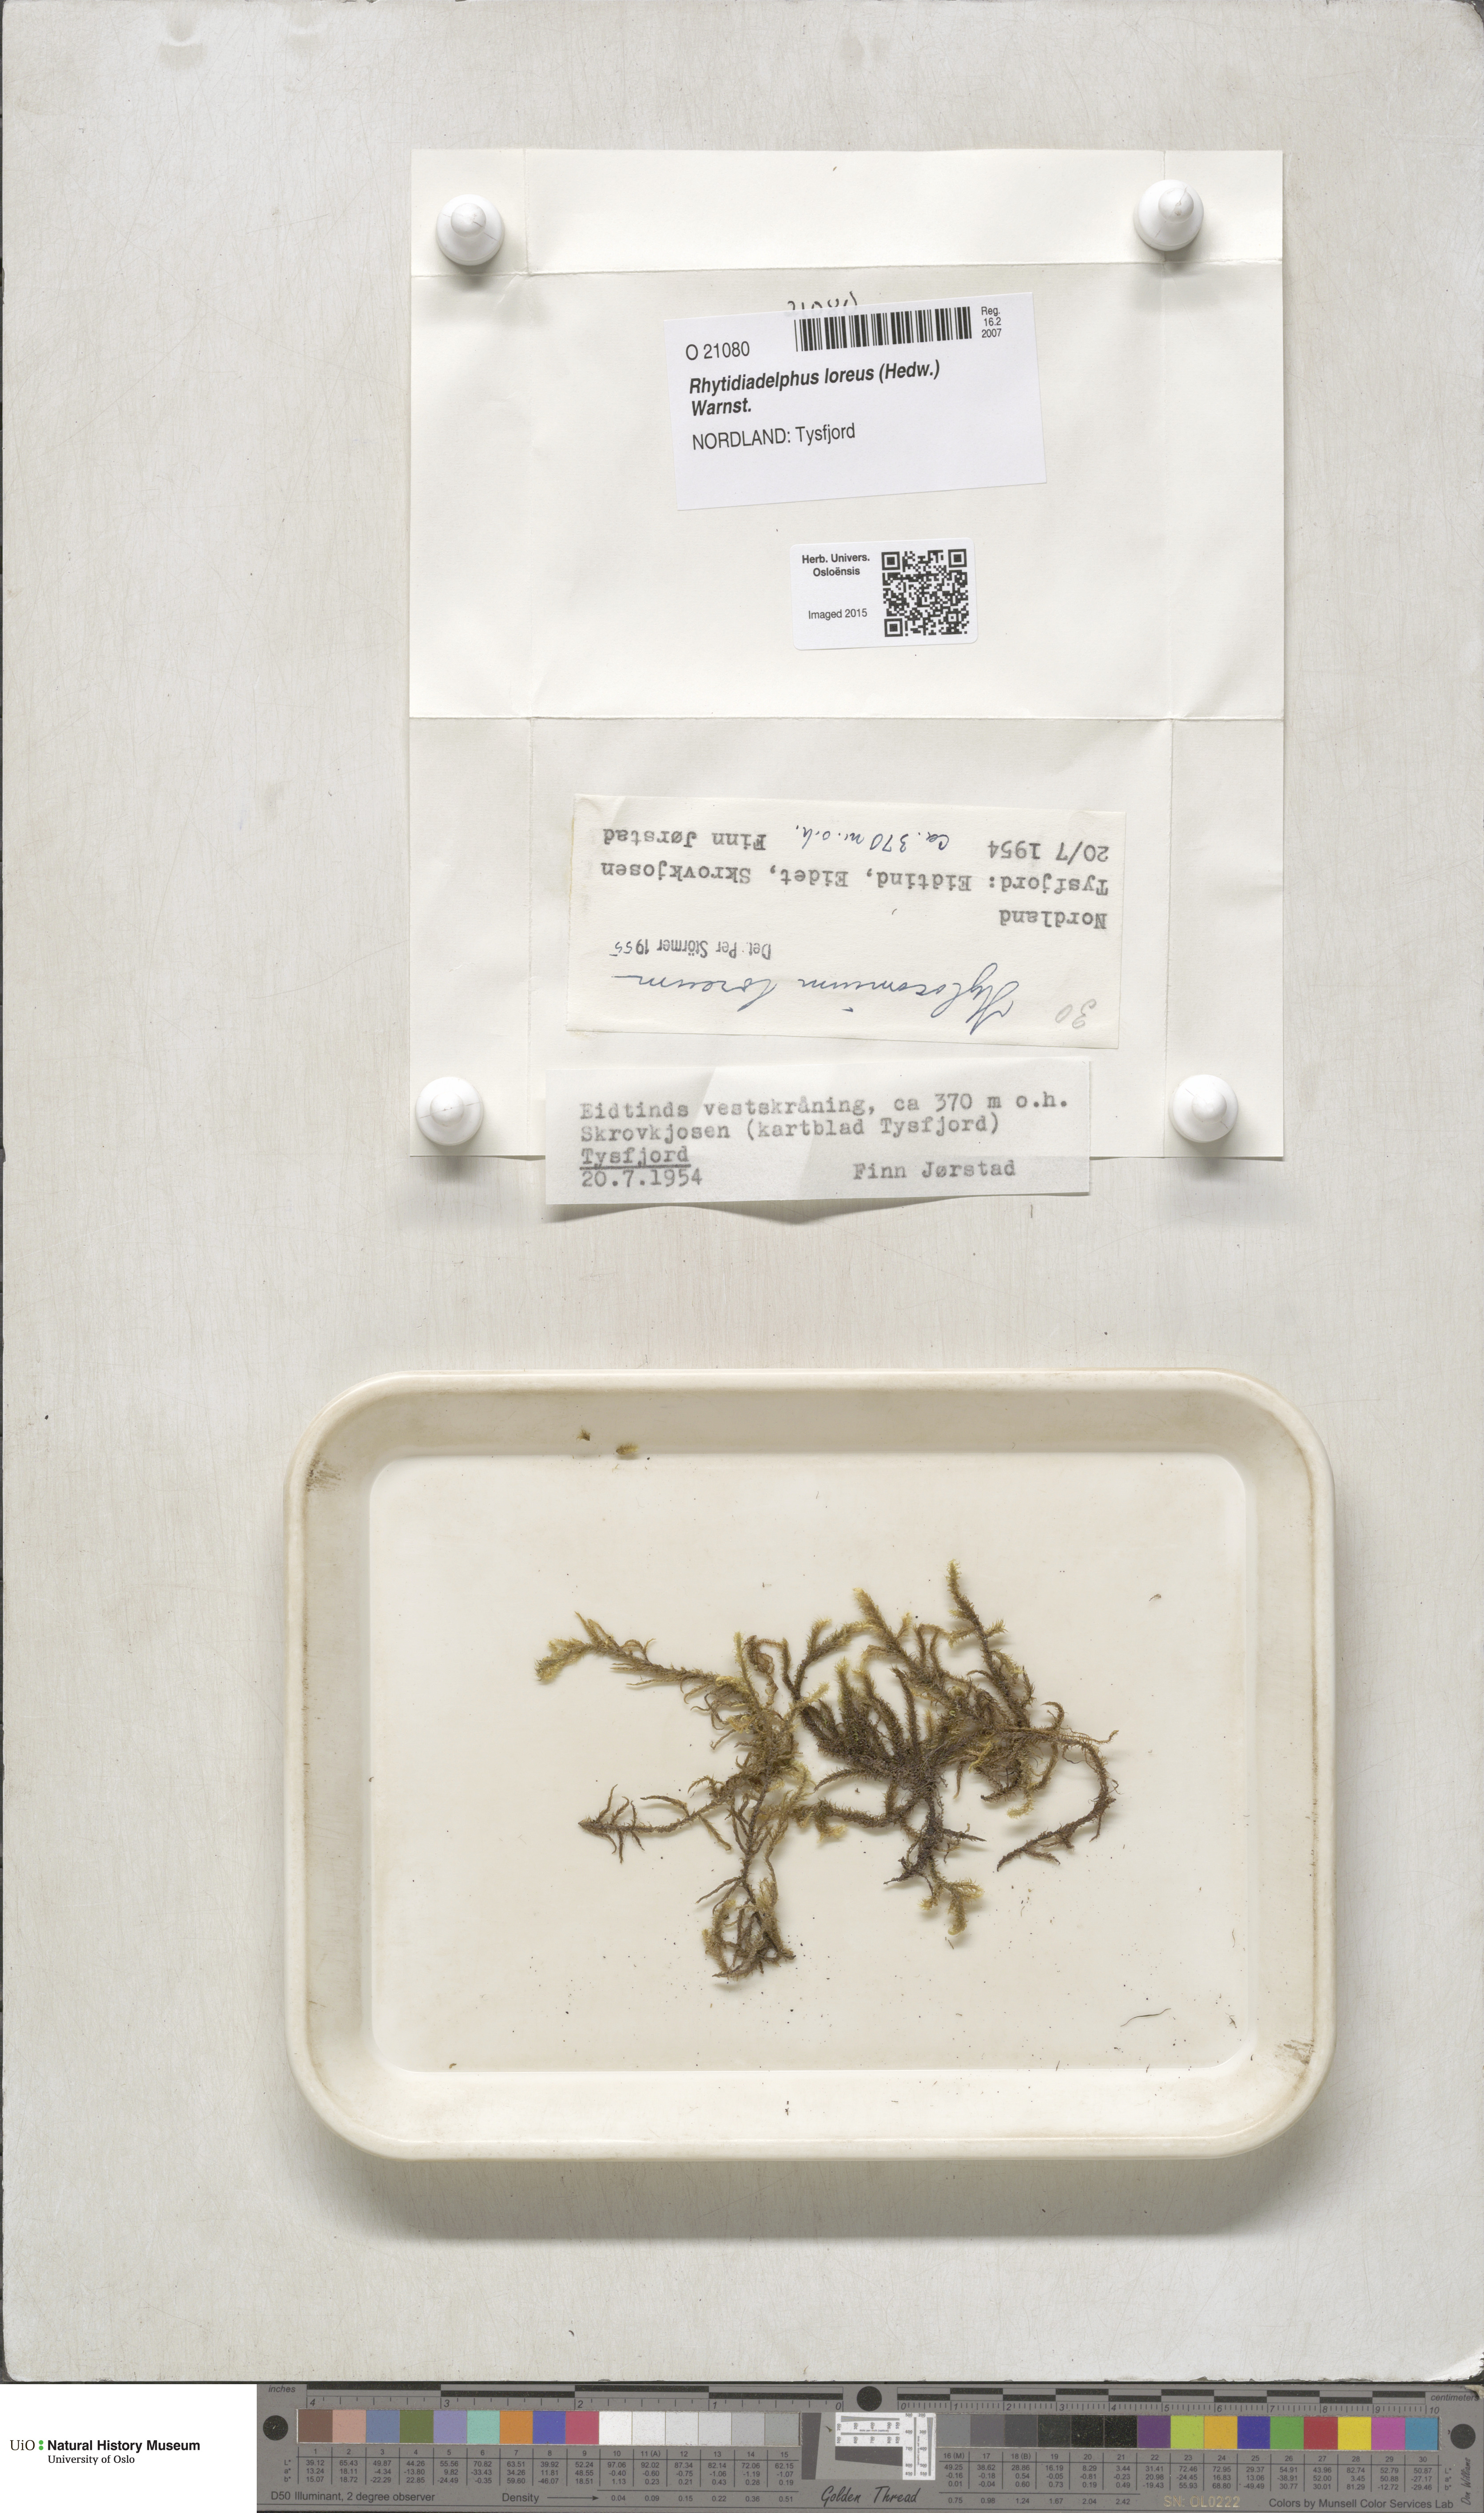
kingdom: Plantae
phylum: Bryophyta
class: Bryopsida
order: Hypnales
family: Hylocomiaceae
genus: Rhytidiadelphus
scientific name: Rhytidiadelphus loreus
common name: Lanky moss
